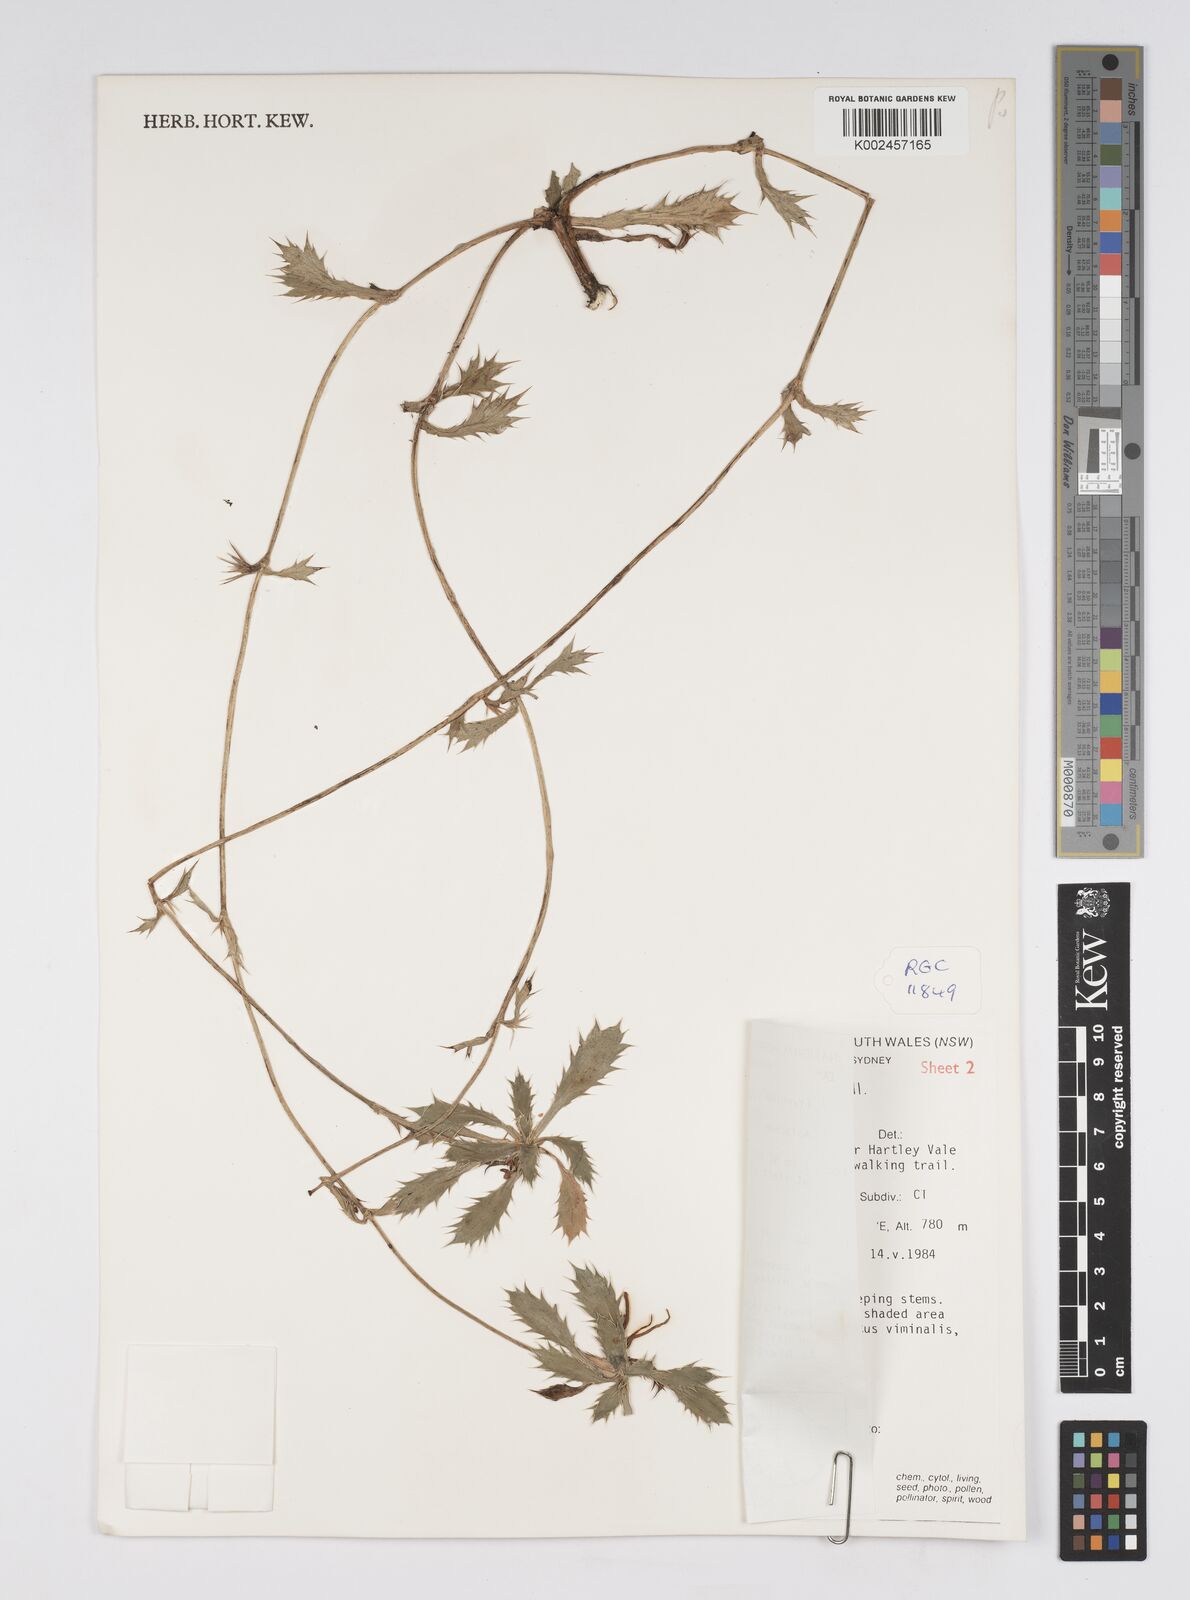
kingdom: Plantae
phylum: Tracheophyta
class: Magnoliopsida
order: Apiales
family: Apiaceae
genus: Eryngium
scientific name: Eryngium vesiculosum
